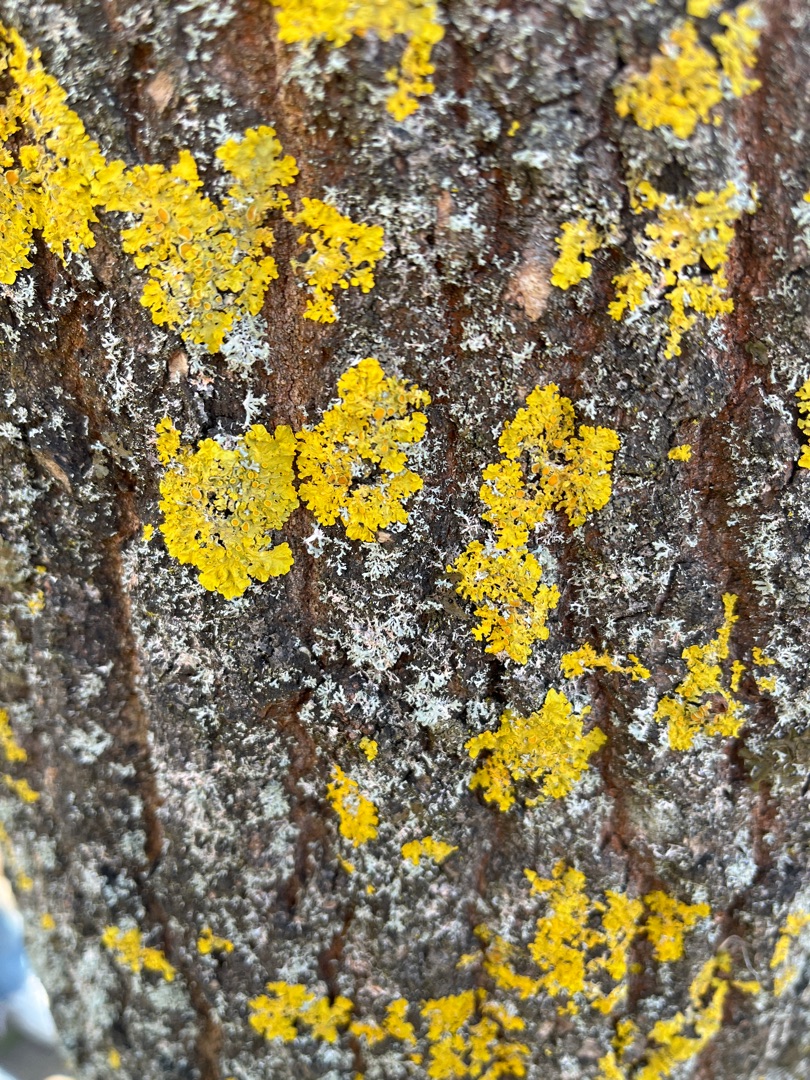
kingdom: Fungi
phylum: Ascomycota
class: Lecanoromycetes
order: Teloschistales
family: Teloschistaceae
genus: Xanthoria
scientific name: Xanthoria parietina
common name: Almindelig væggelav
